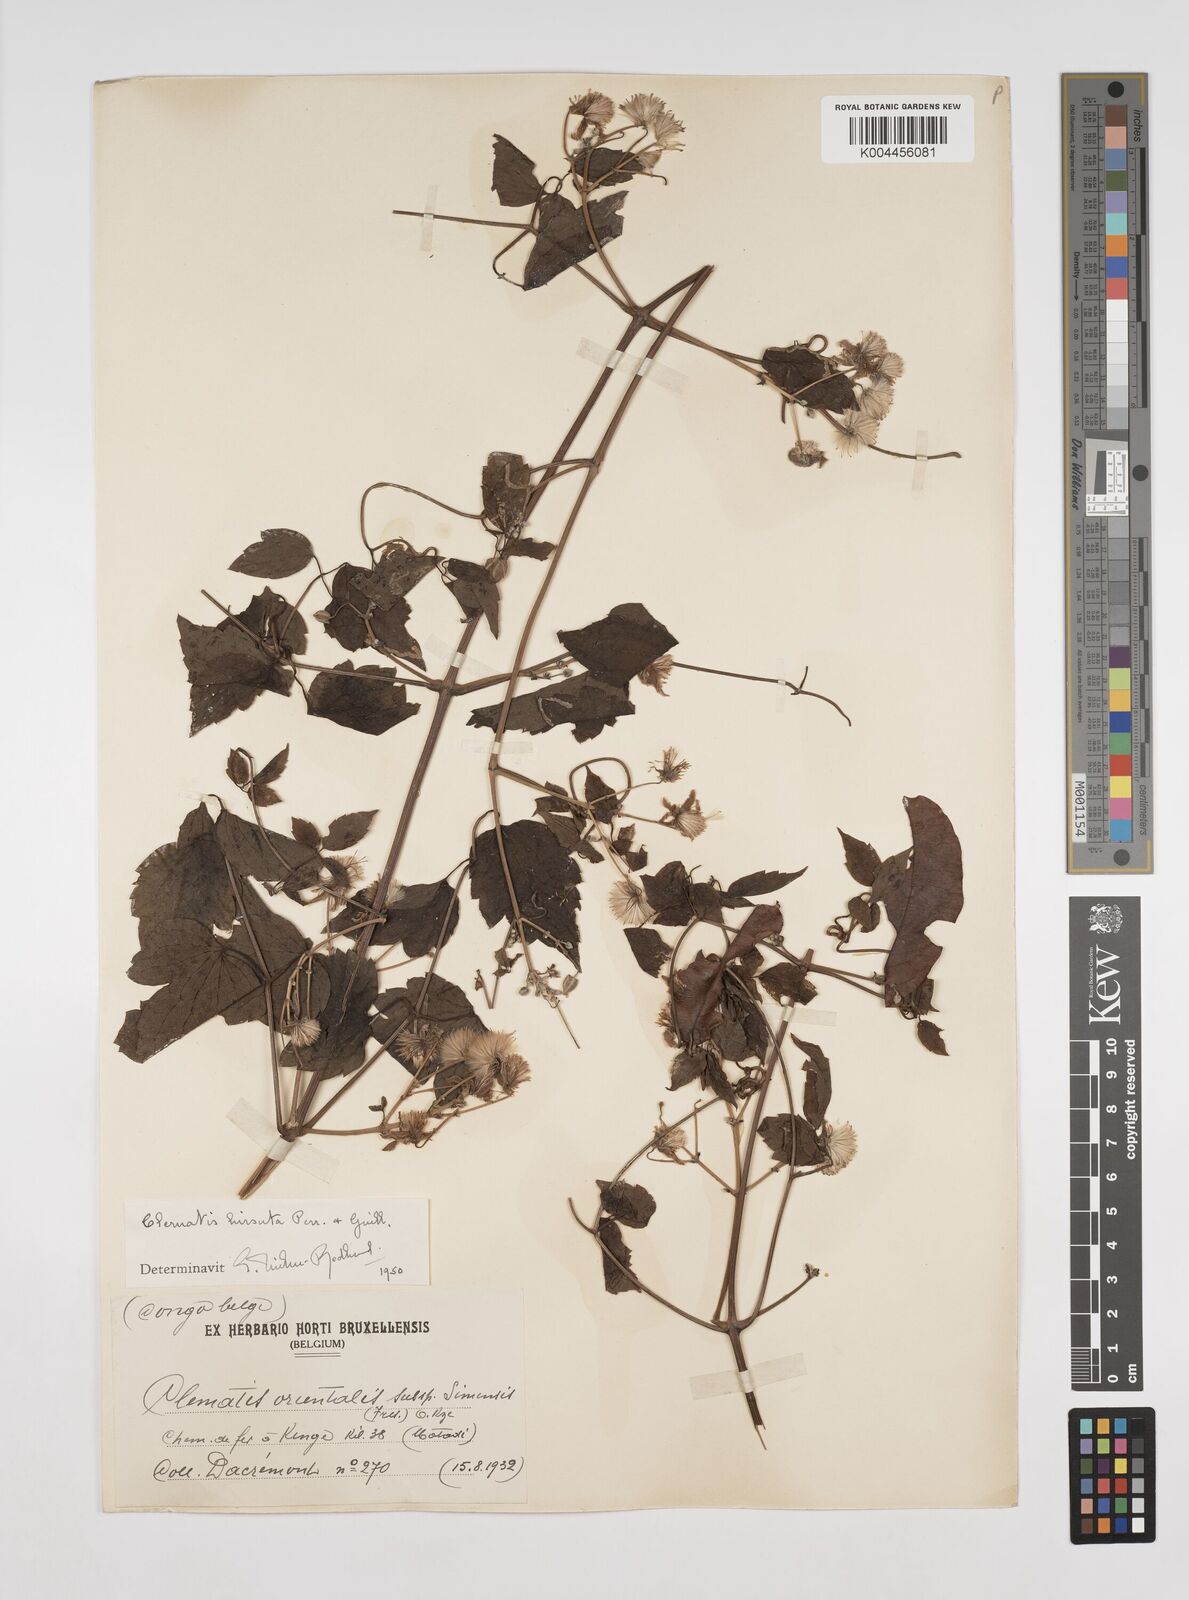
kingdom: Plantae
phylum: Tracheophyta
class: Magnoliopsida
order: Ranunculales
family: Ranunculaceae
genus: Clematis
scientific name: Clematis
